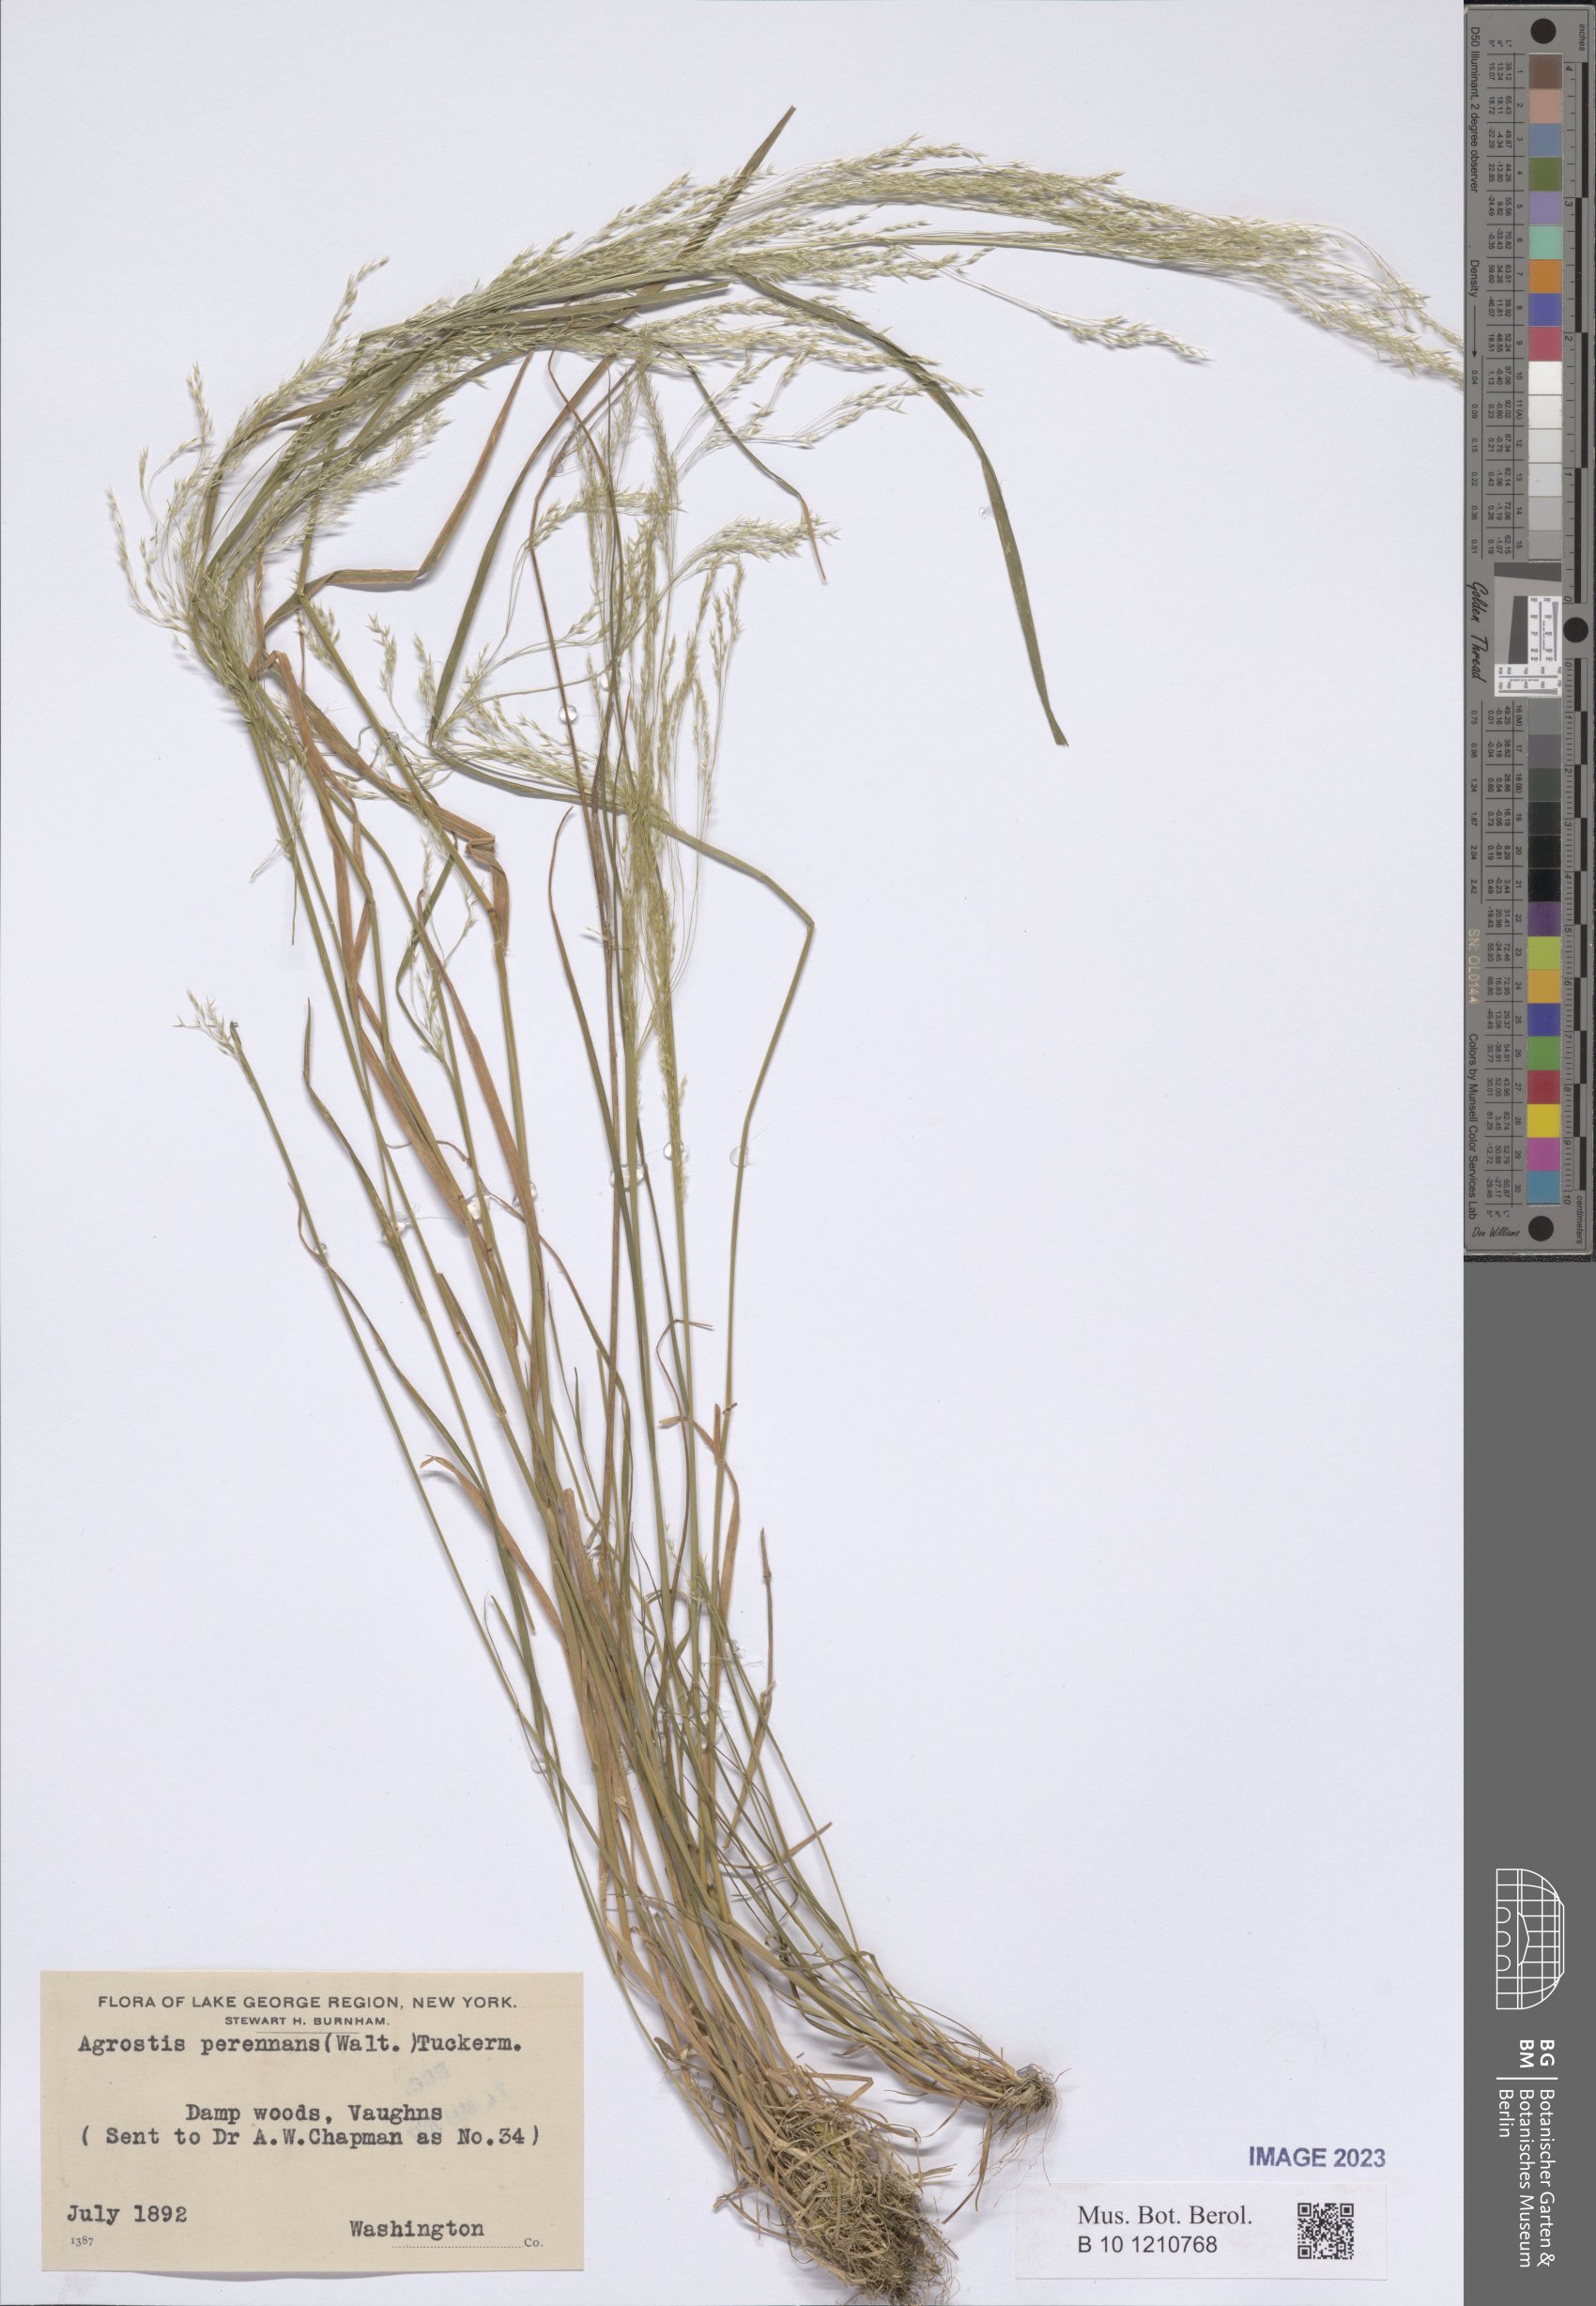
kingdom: Plantae
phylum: Tracheophyta
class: Liliopsida
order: Poales
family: Poaceae
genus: Agrostis
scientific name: Agrostis perennans
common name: Autumn bent
